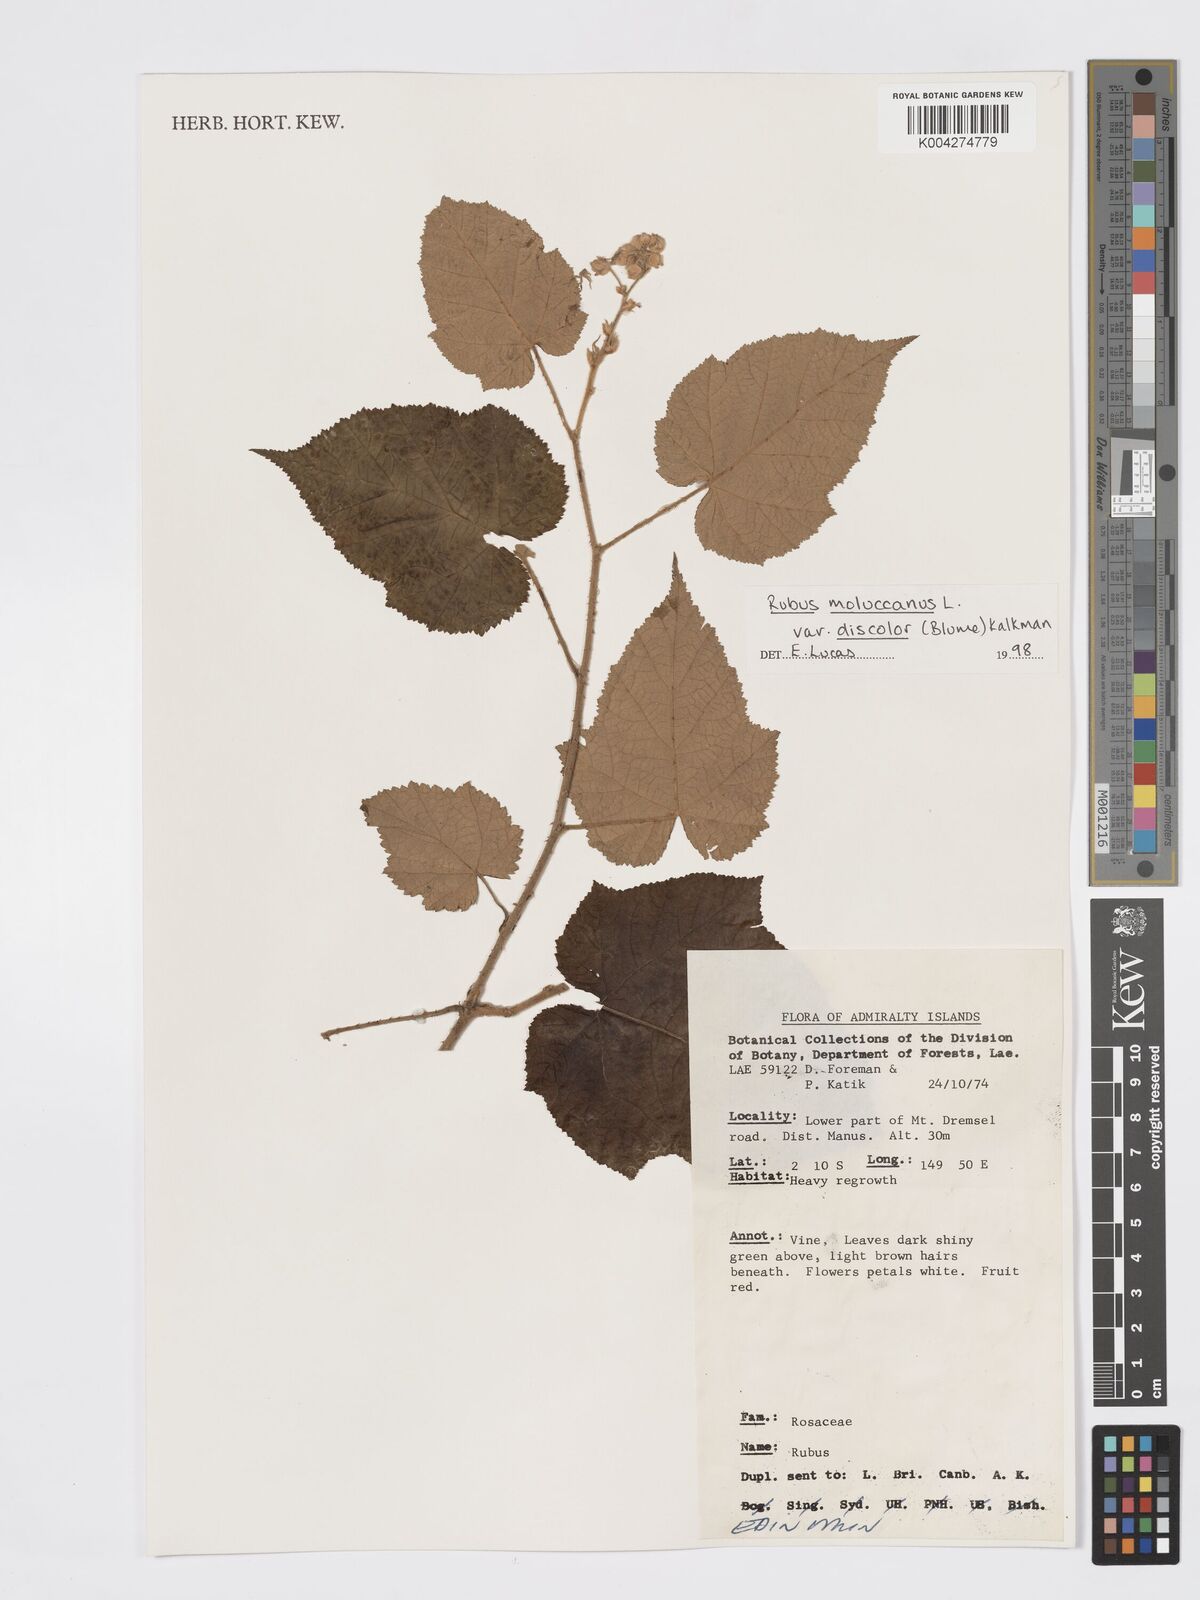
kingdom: Plantae
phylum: Tracheophyta
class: Magnoliopsida
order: Rosales
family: Rosaceae
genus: Rubus
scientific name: Rubus moluccanus
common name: Wild raspberry
